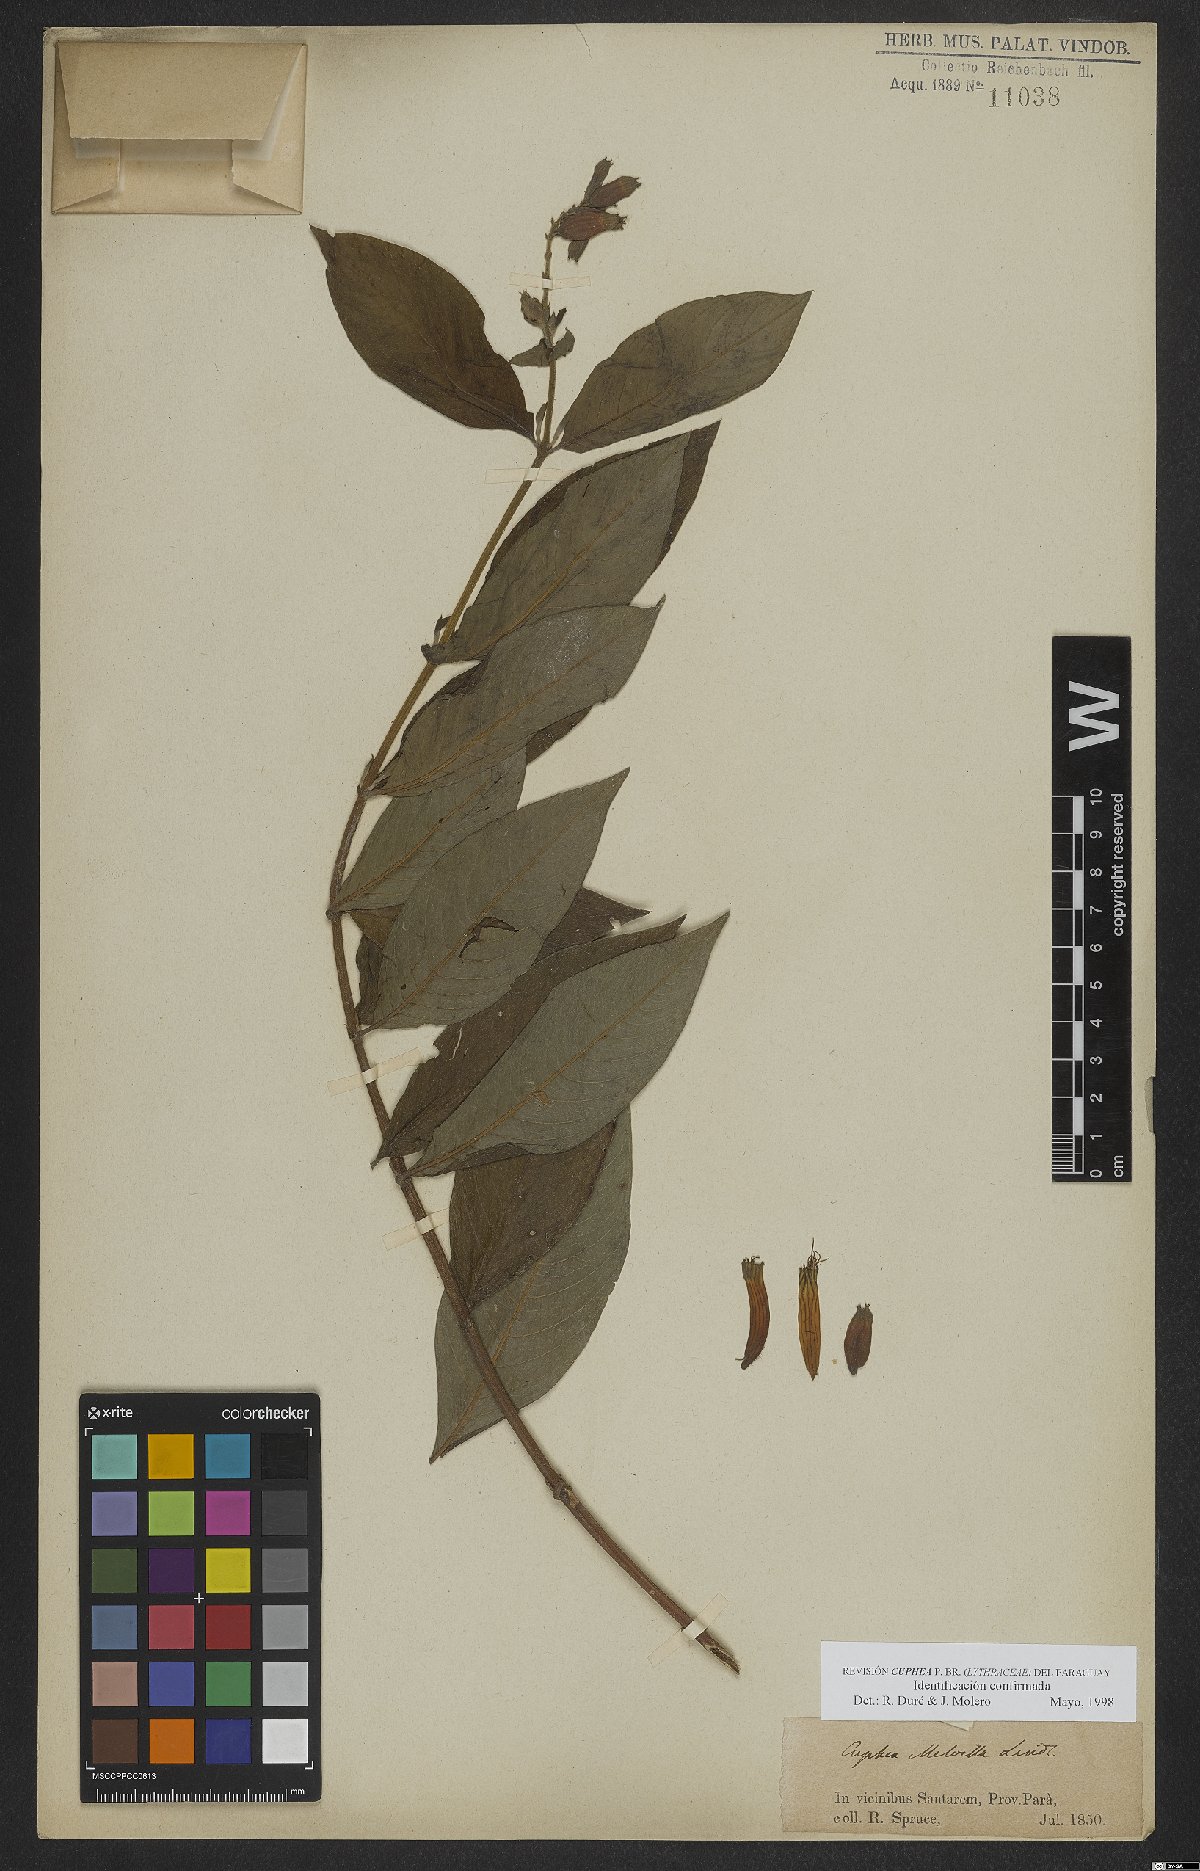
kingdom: Plantae
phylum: Tracheophyta
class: Magnoliopsida
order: Myrtales
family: Lythraceae
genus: Cuphea
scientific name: Cuphea melvilla
